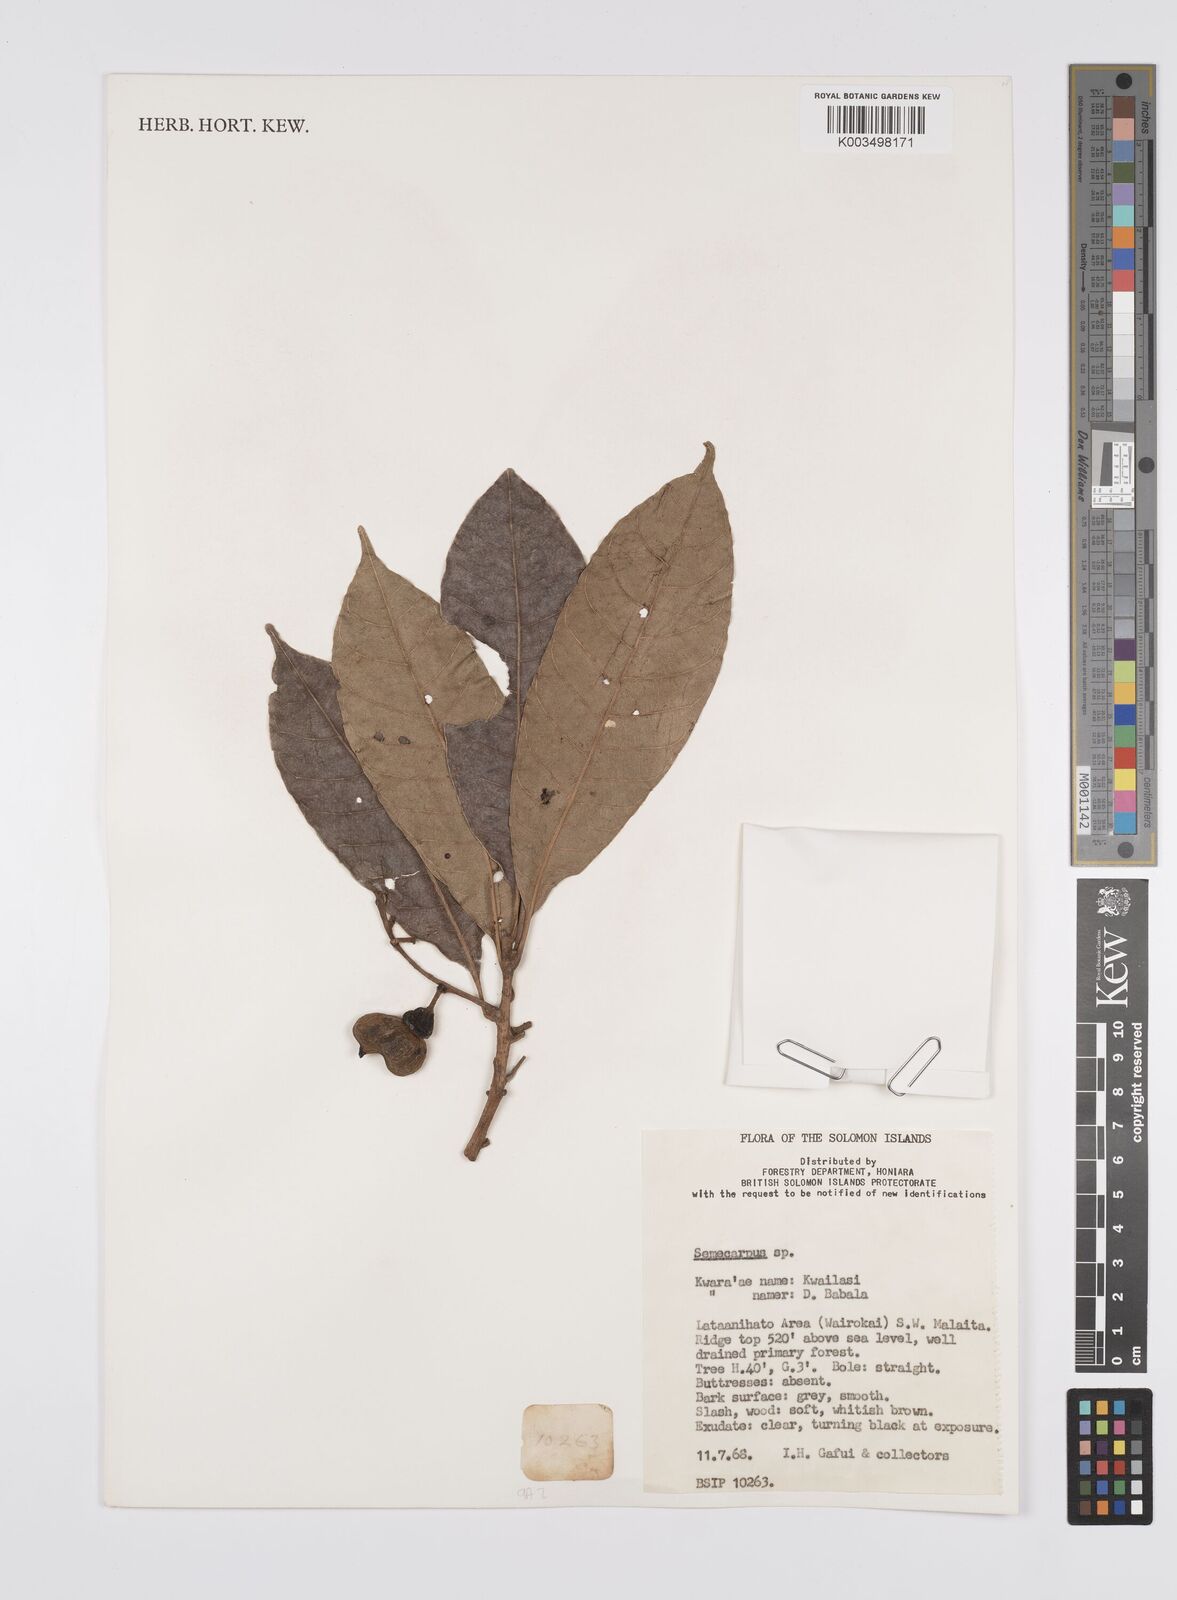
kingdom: Plantae
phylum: Tracheophyta
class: Magnoliopsida
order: Sapindales
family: Anacardiaceae
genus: Semecarpus
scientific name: Semecarpus
